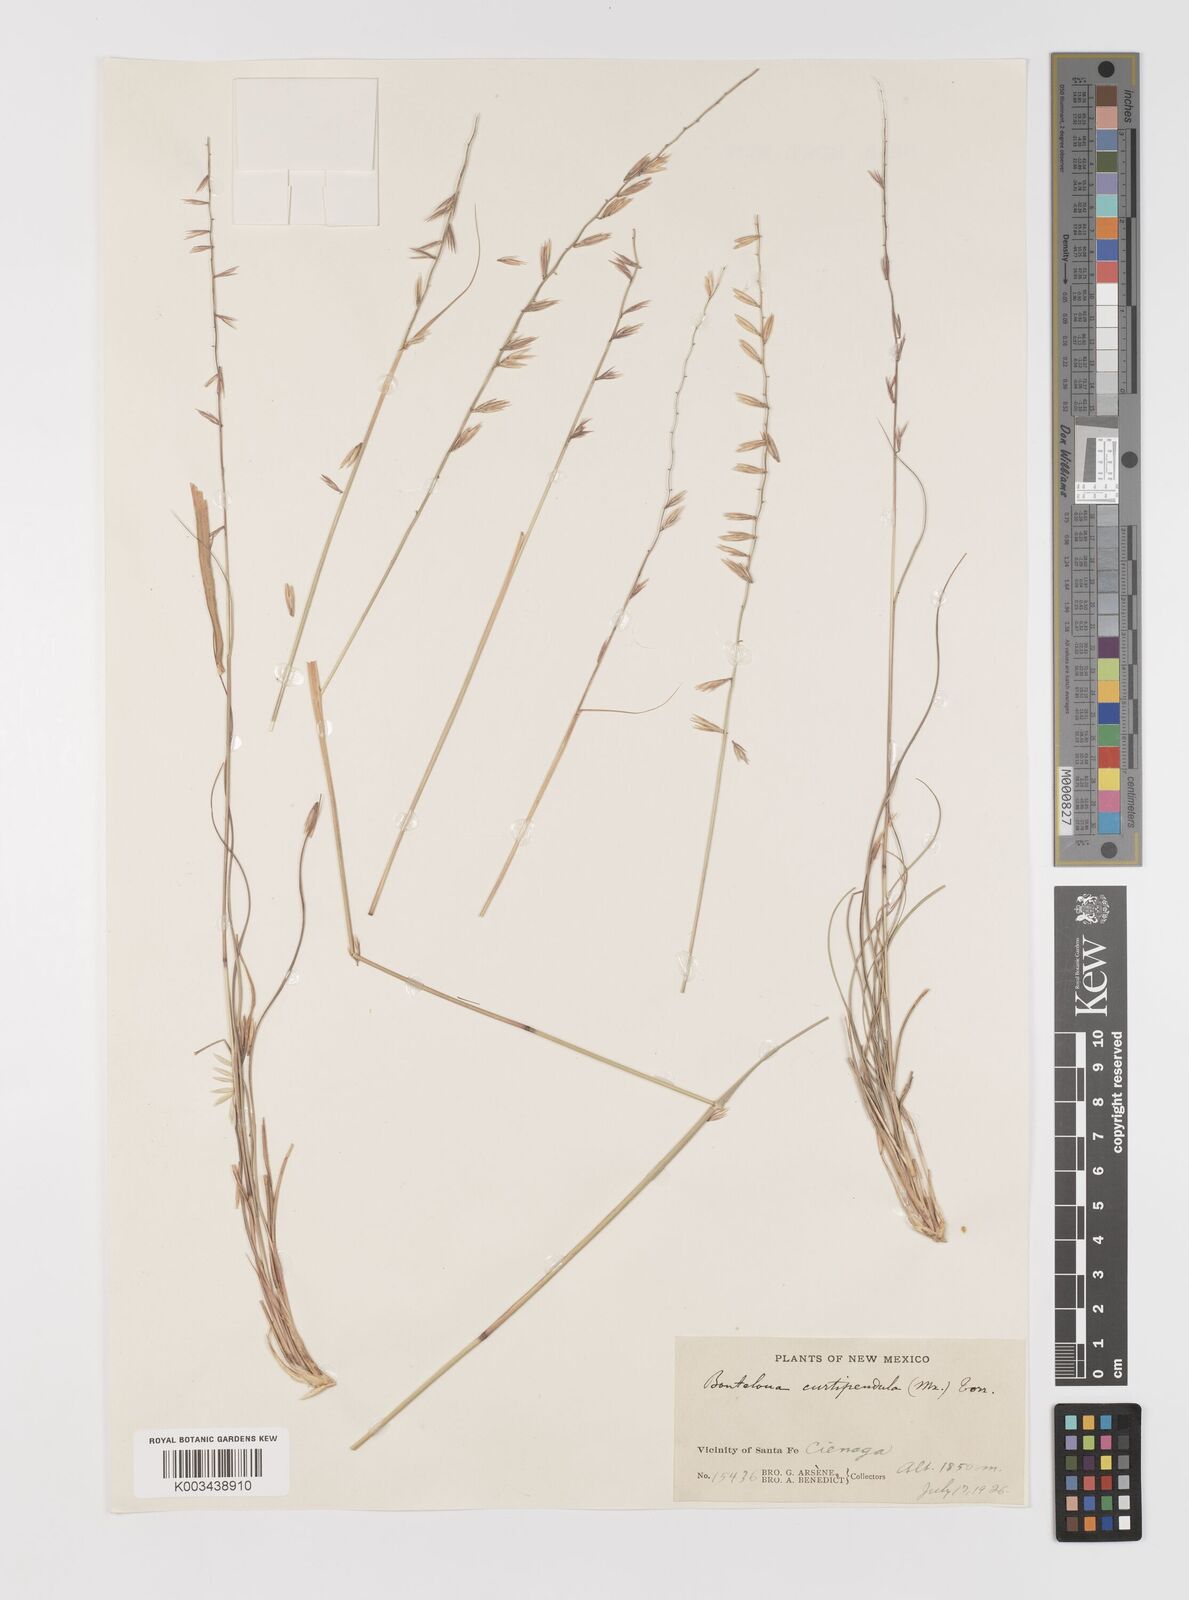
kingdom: Plantae
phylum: Tracheophyta
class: Liliopsida
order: Poales
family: Poaceae
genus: Bouteloua
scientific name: Bouteloua curtipendula
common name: Side-oats grama
